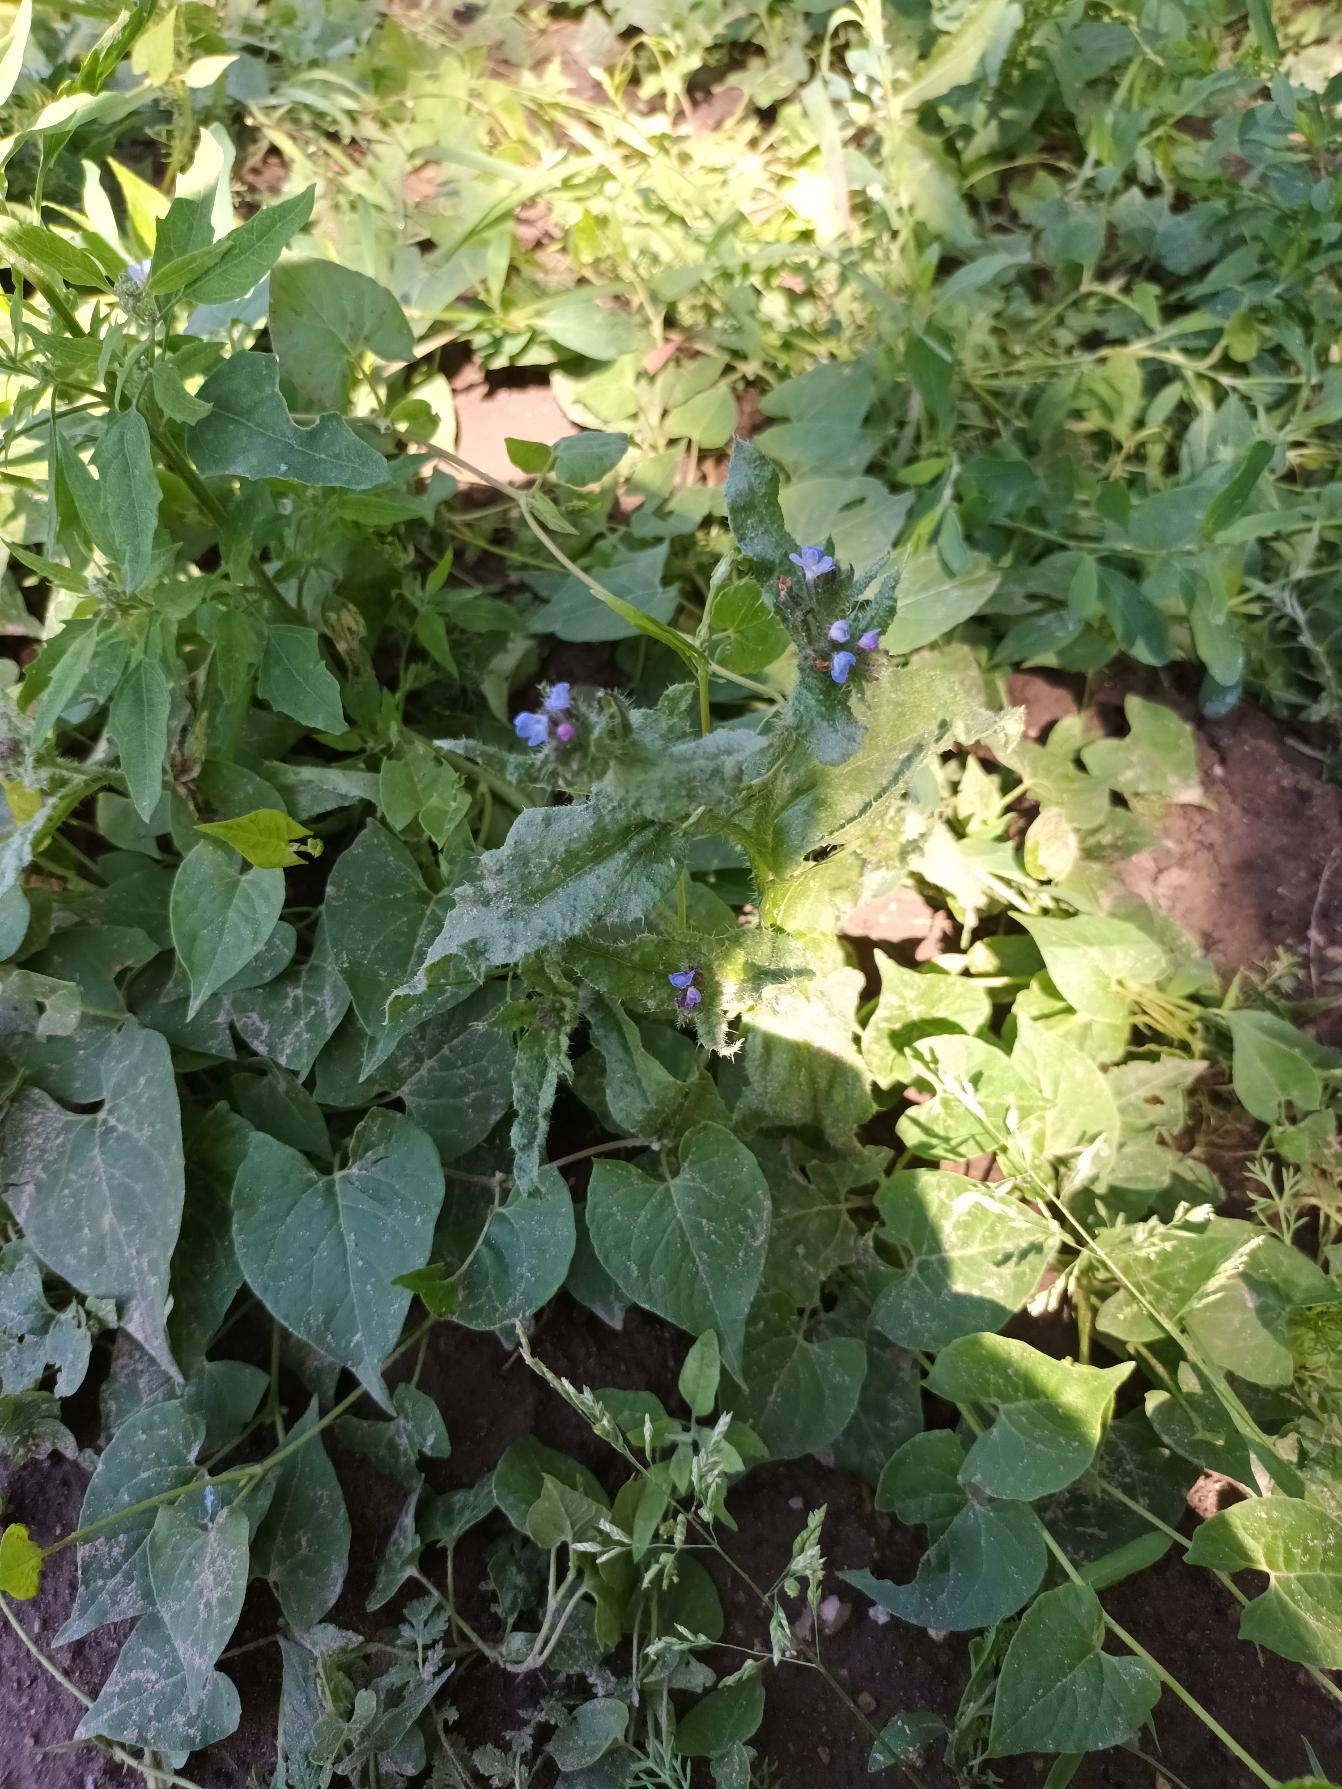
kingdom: Plantae
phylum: Tracheophyta
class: Magnoliopsida
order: Boraginales
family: Boraginaceae
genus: Lycopsis
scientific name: Lycopsis arvensis
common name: Krumhals
